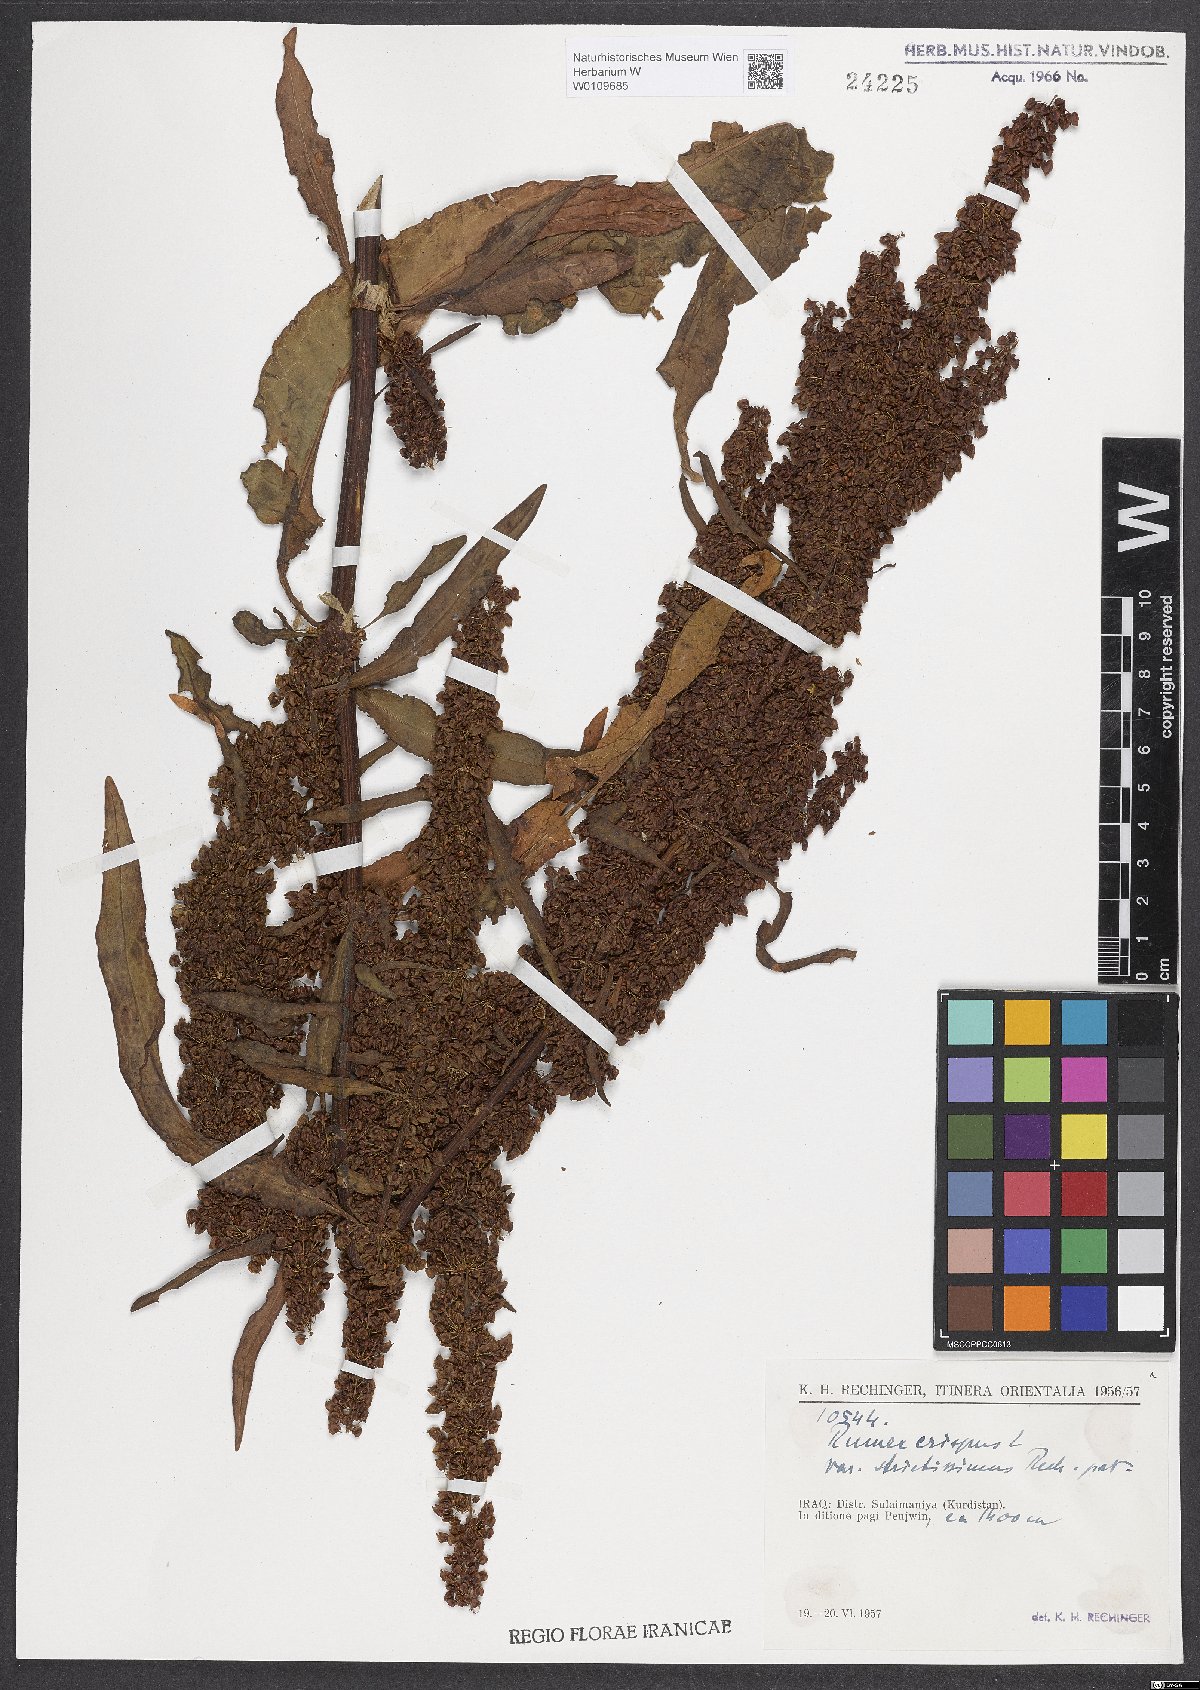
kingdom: Plantae
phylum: Tracheophyta
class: Magnoliopsida
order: Caryophyllales
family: Polygonaceae
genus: Rumex
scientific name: Rumex crispus
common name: Curled dock
